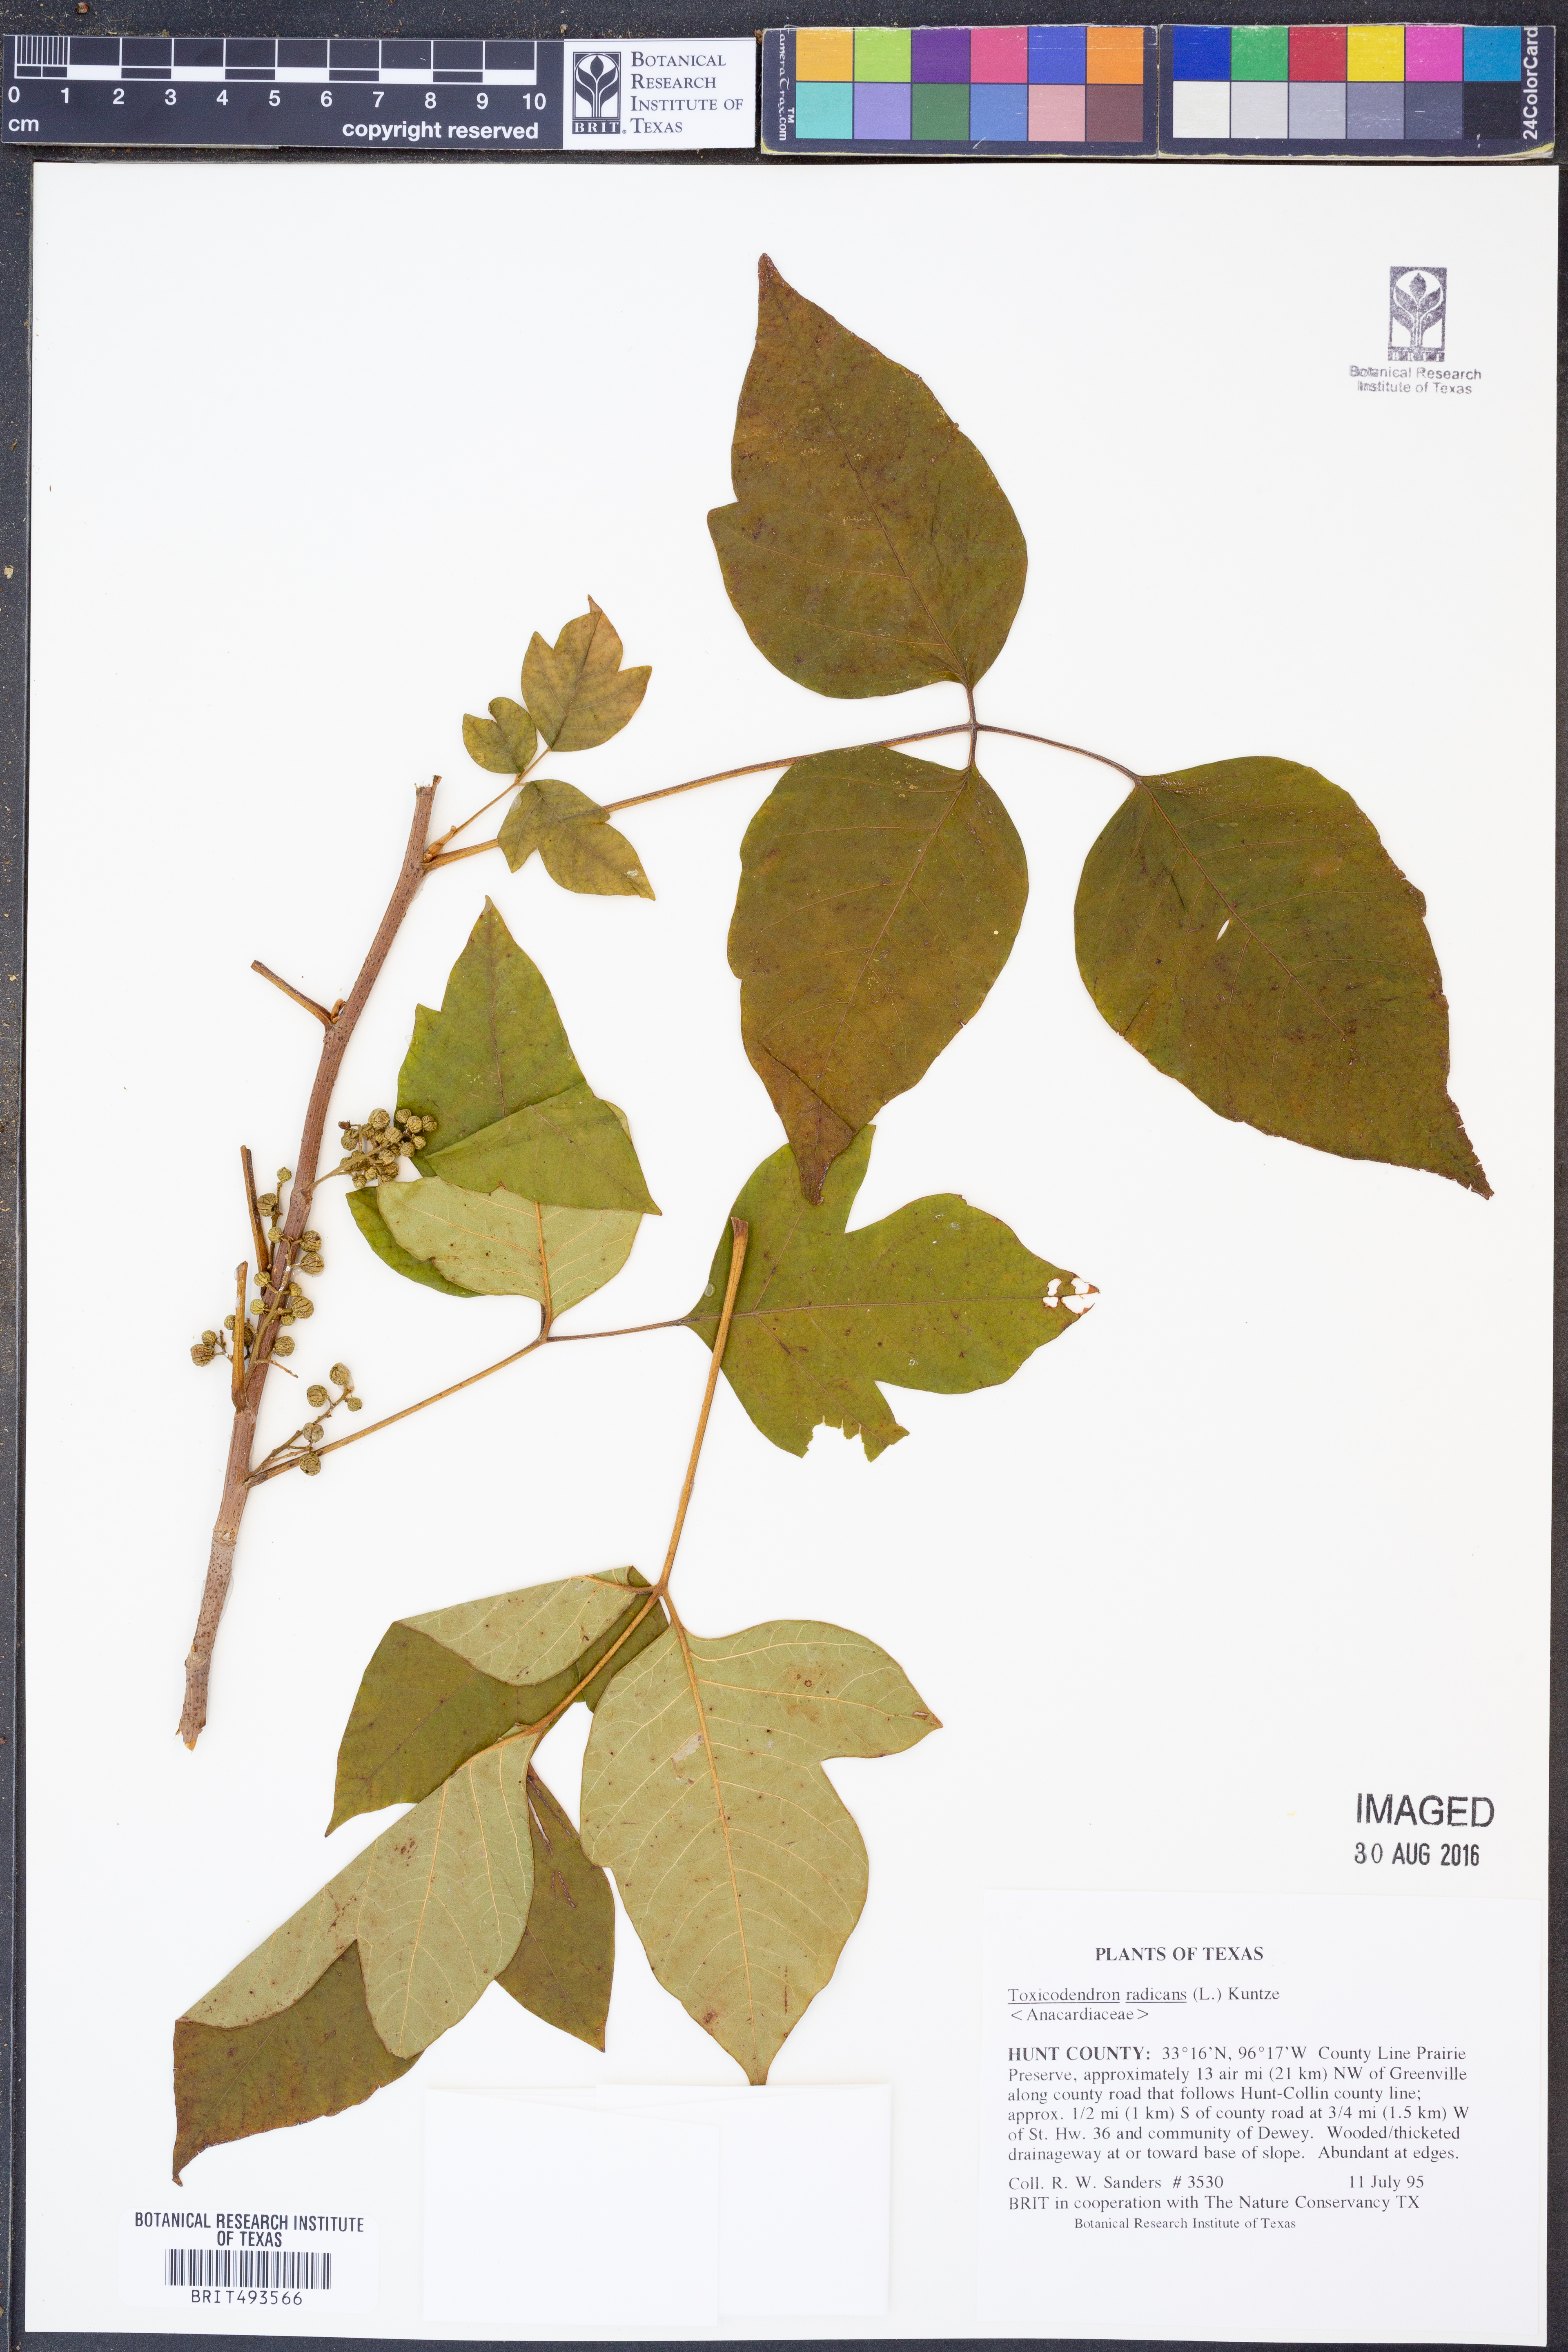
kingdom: Plantae
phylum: Tracheophyta
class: Magnoliopsida
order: Sapindales
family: Anacardiaceae
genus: Toxicodendron
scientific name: Toxicodendron radicans
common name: Poison ivy
